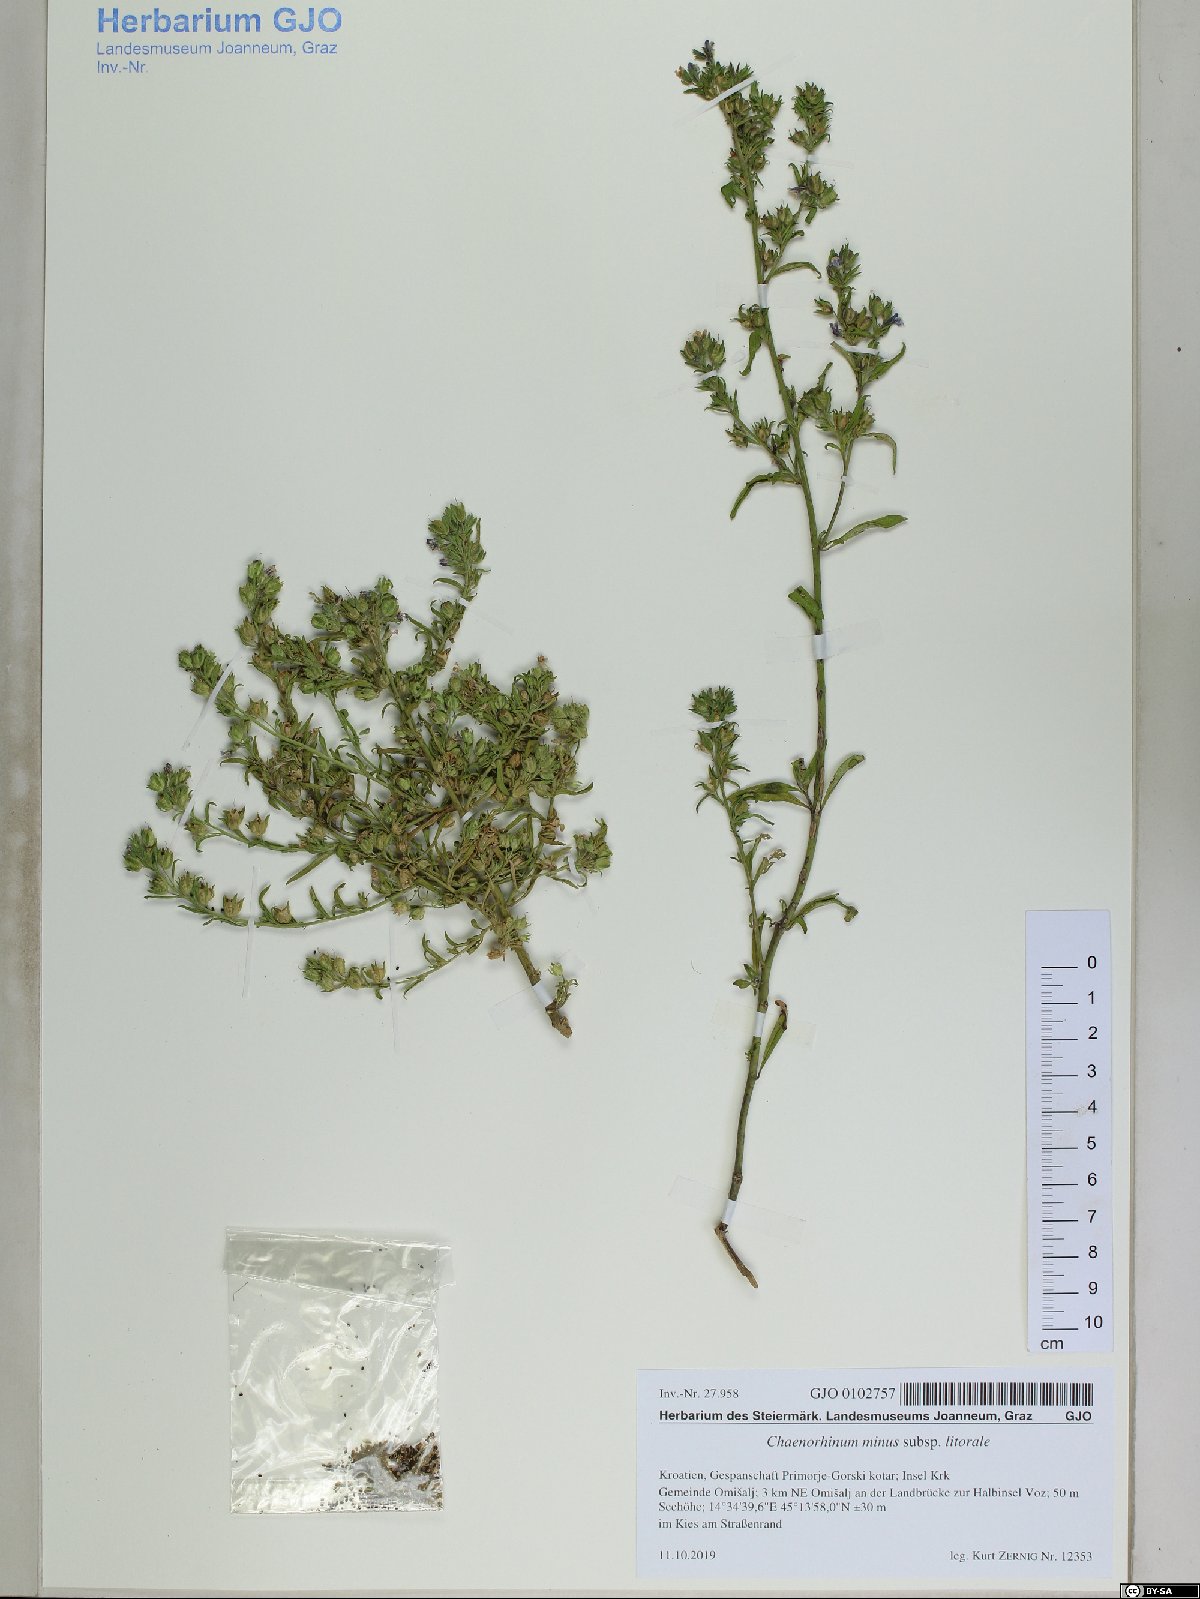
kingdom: Plantae
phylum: Tracheophyta
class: Magnoliopsida
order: Lamiales
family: Plantaginaceae
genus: Chaenorhinum
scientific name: Chaenorhinum litorale
